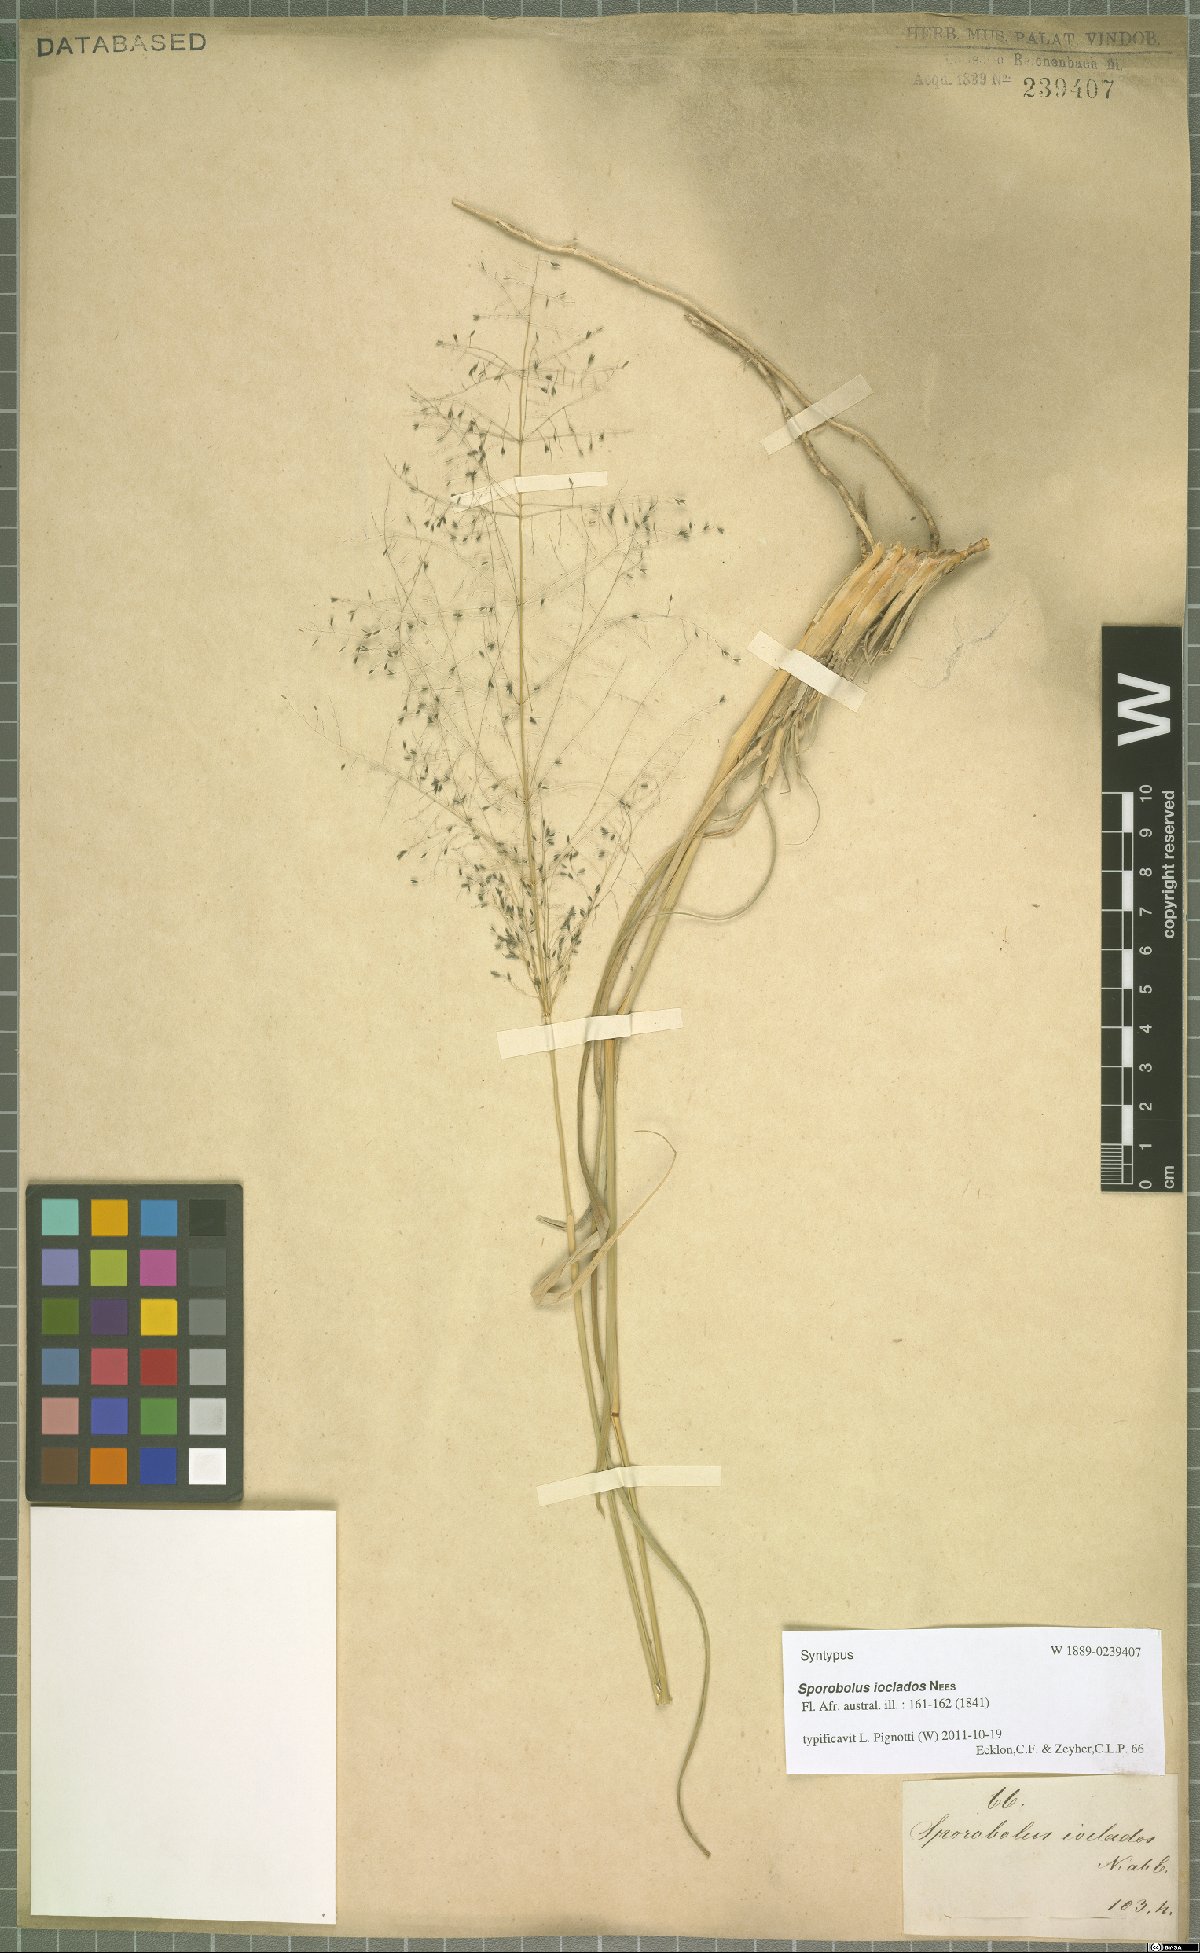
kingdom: Plantae
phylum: Tracheophyta
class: Liliopsida
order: Poales
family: Poaceae
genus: Sporobolus
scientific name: Sporobolus ioclados
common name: Pan dropseed
